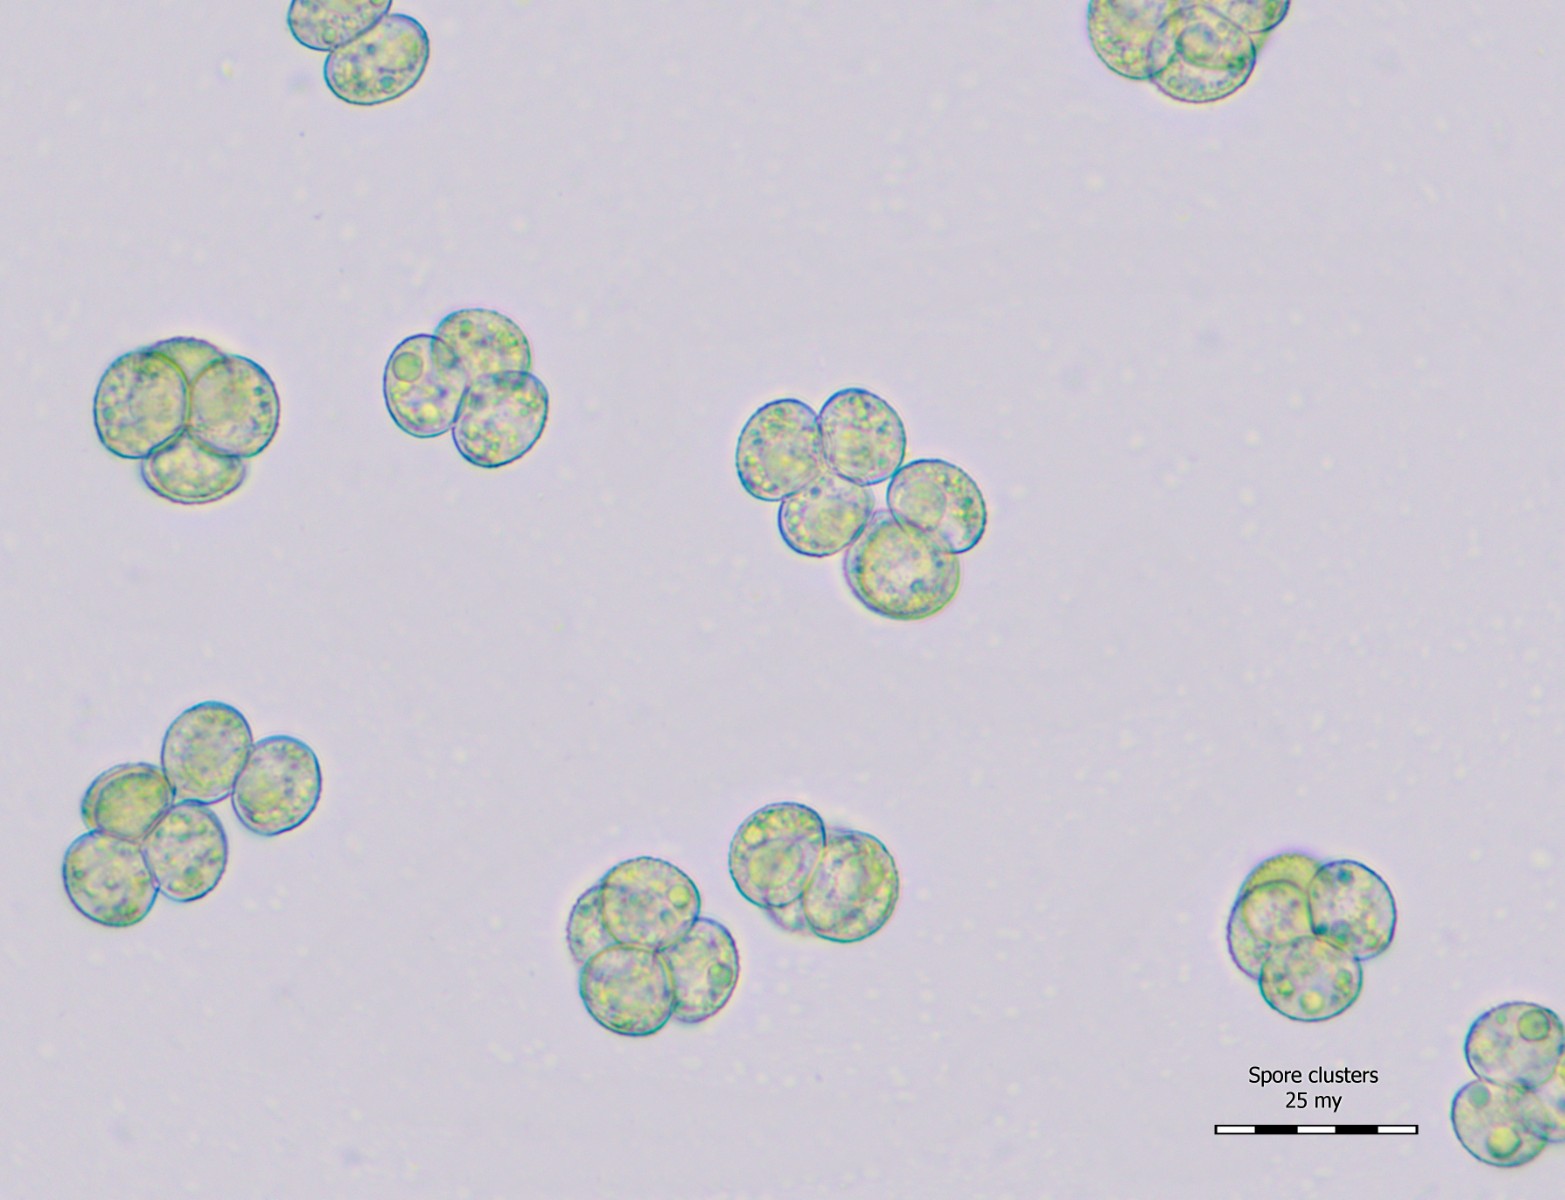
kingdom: Protozoa
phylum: Mycetozoa
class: Myxomycetes
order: Trichiales
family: Dianemataceae
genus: Dianema
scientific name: Dianema corticatum
